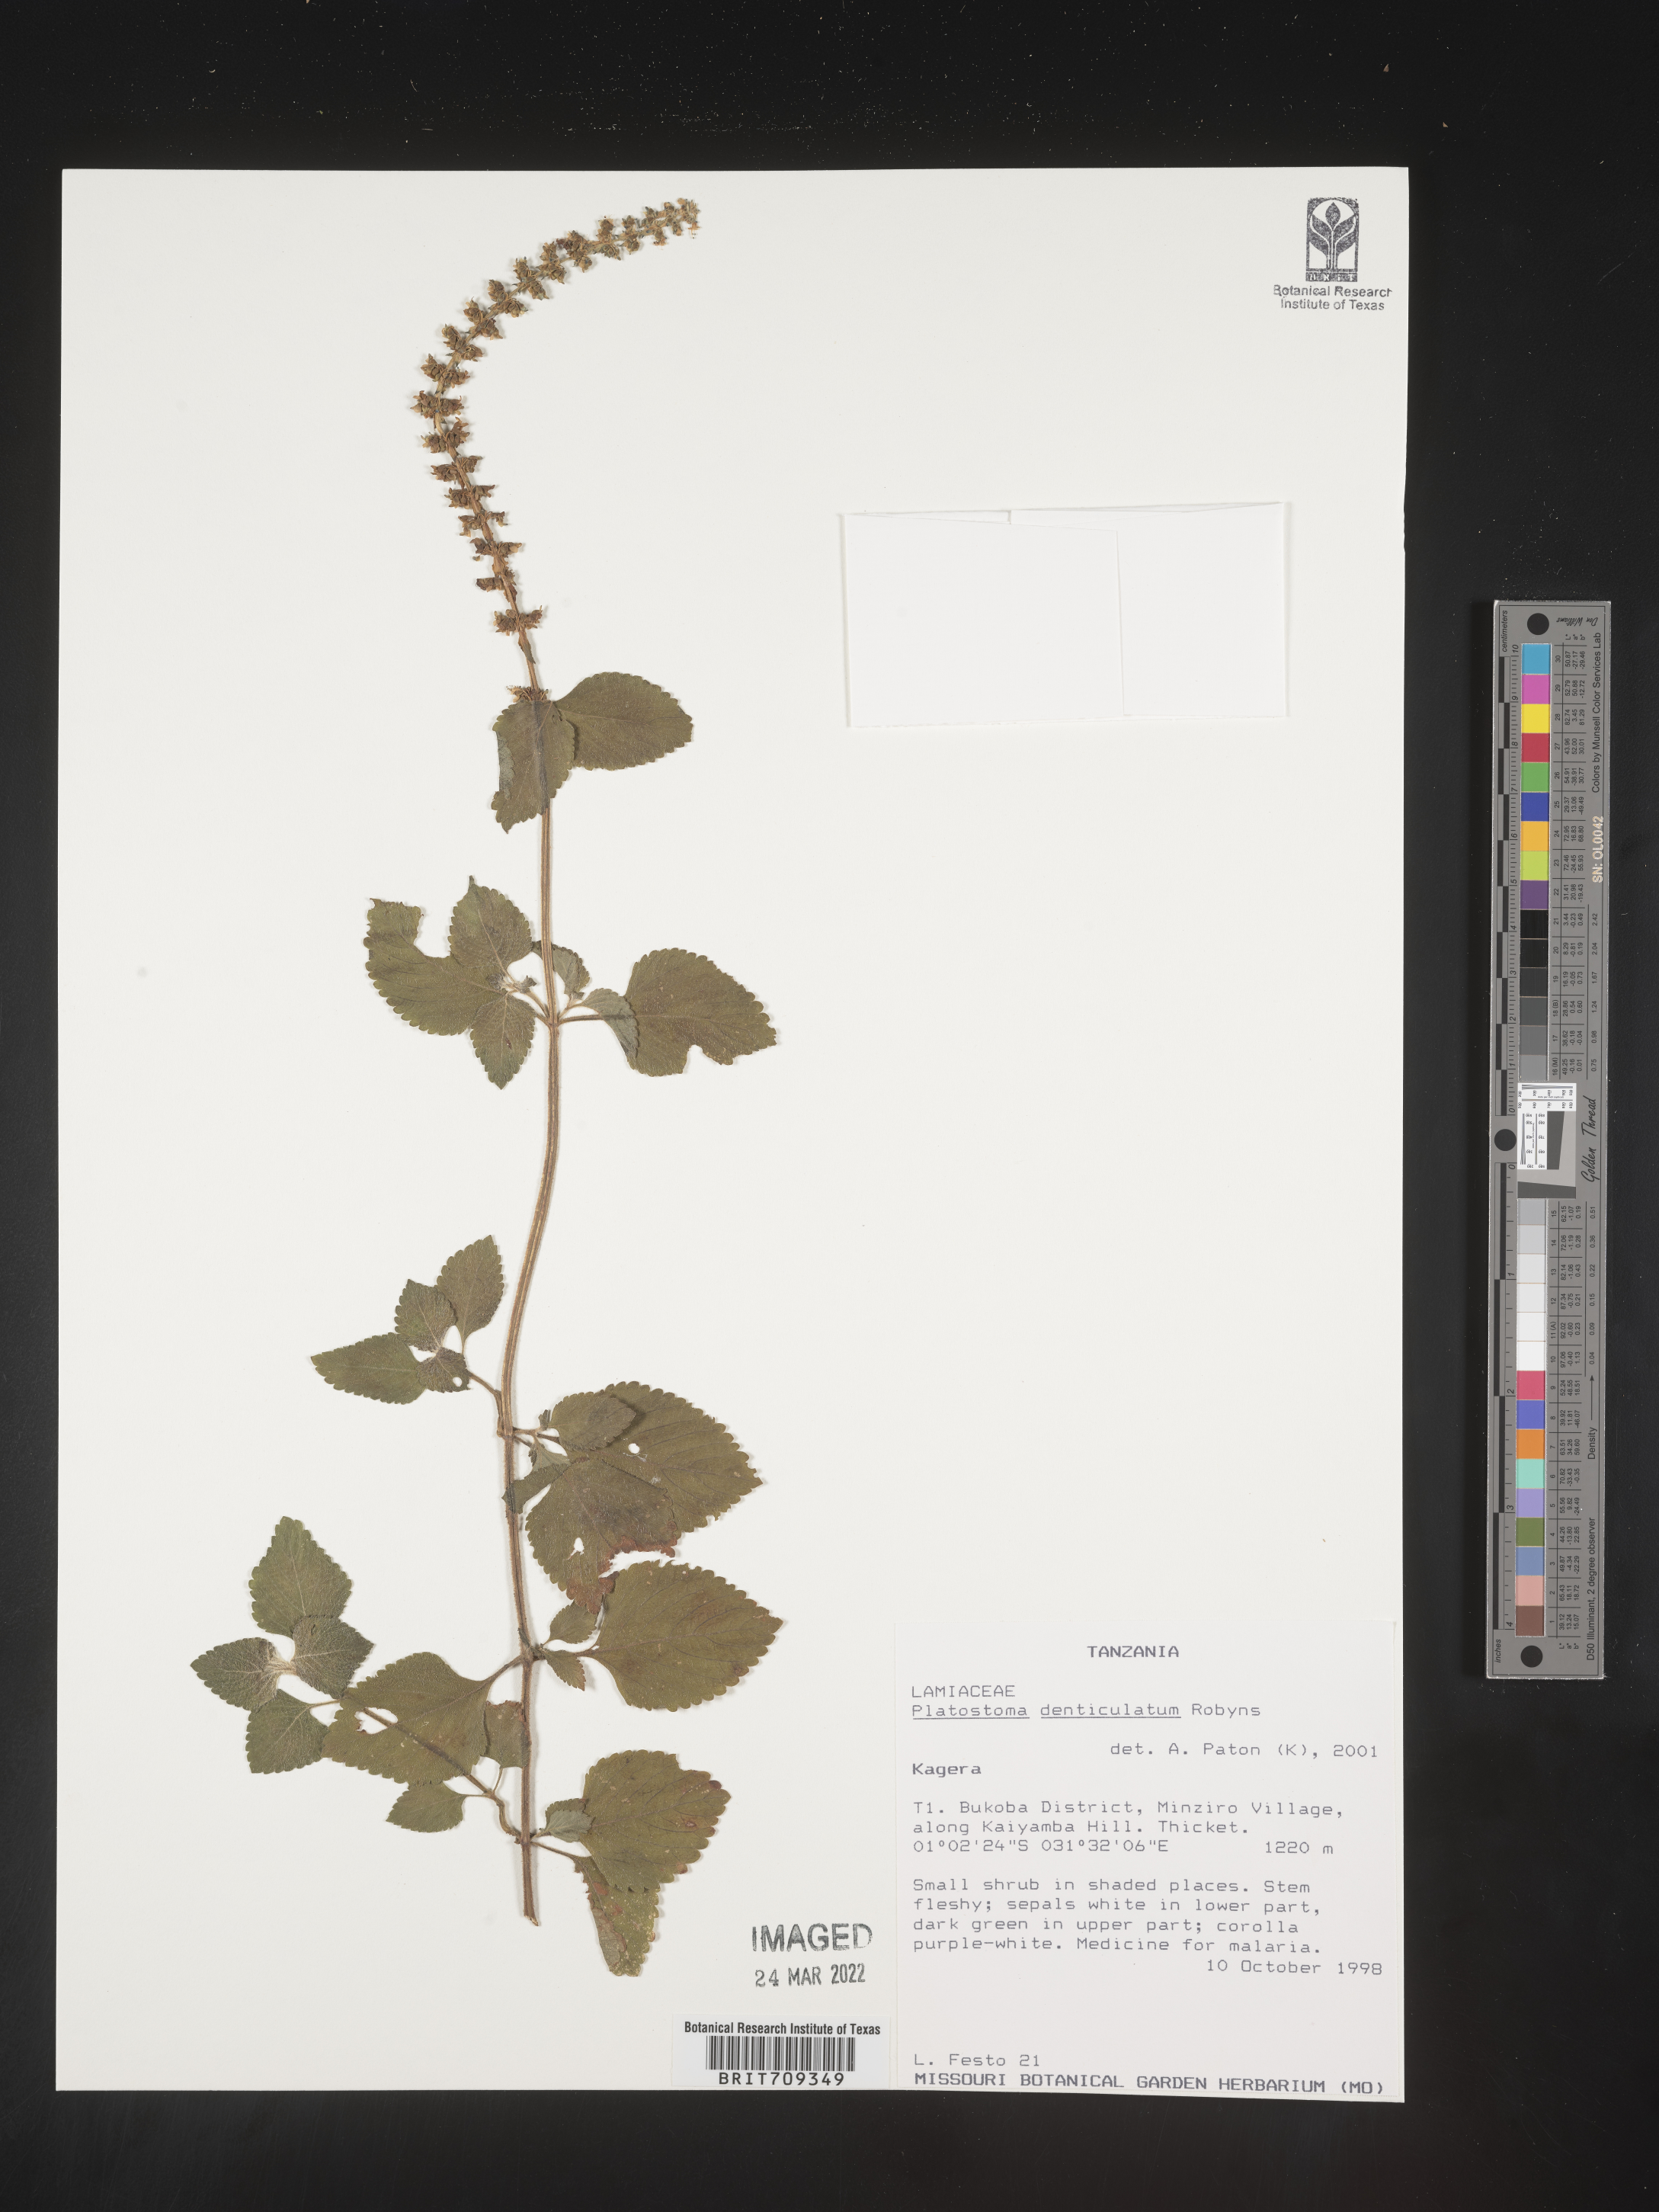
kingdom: Plantae
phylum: Tracheophyta
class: Magnoliopsida
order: Lamiales
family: Lamiaceae
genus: Platystoma
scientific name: Platystoma
